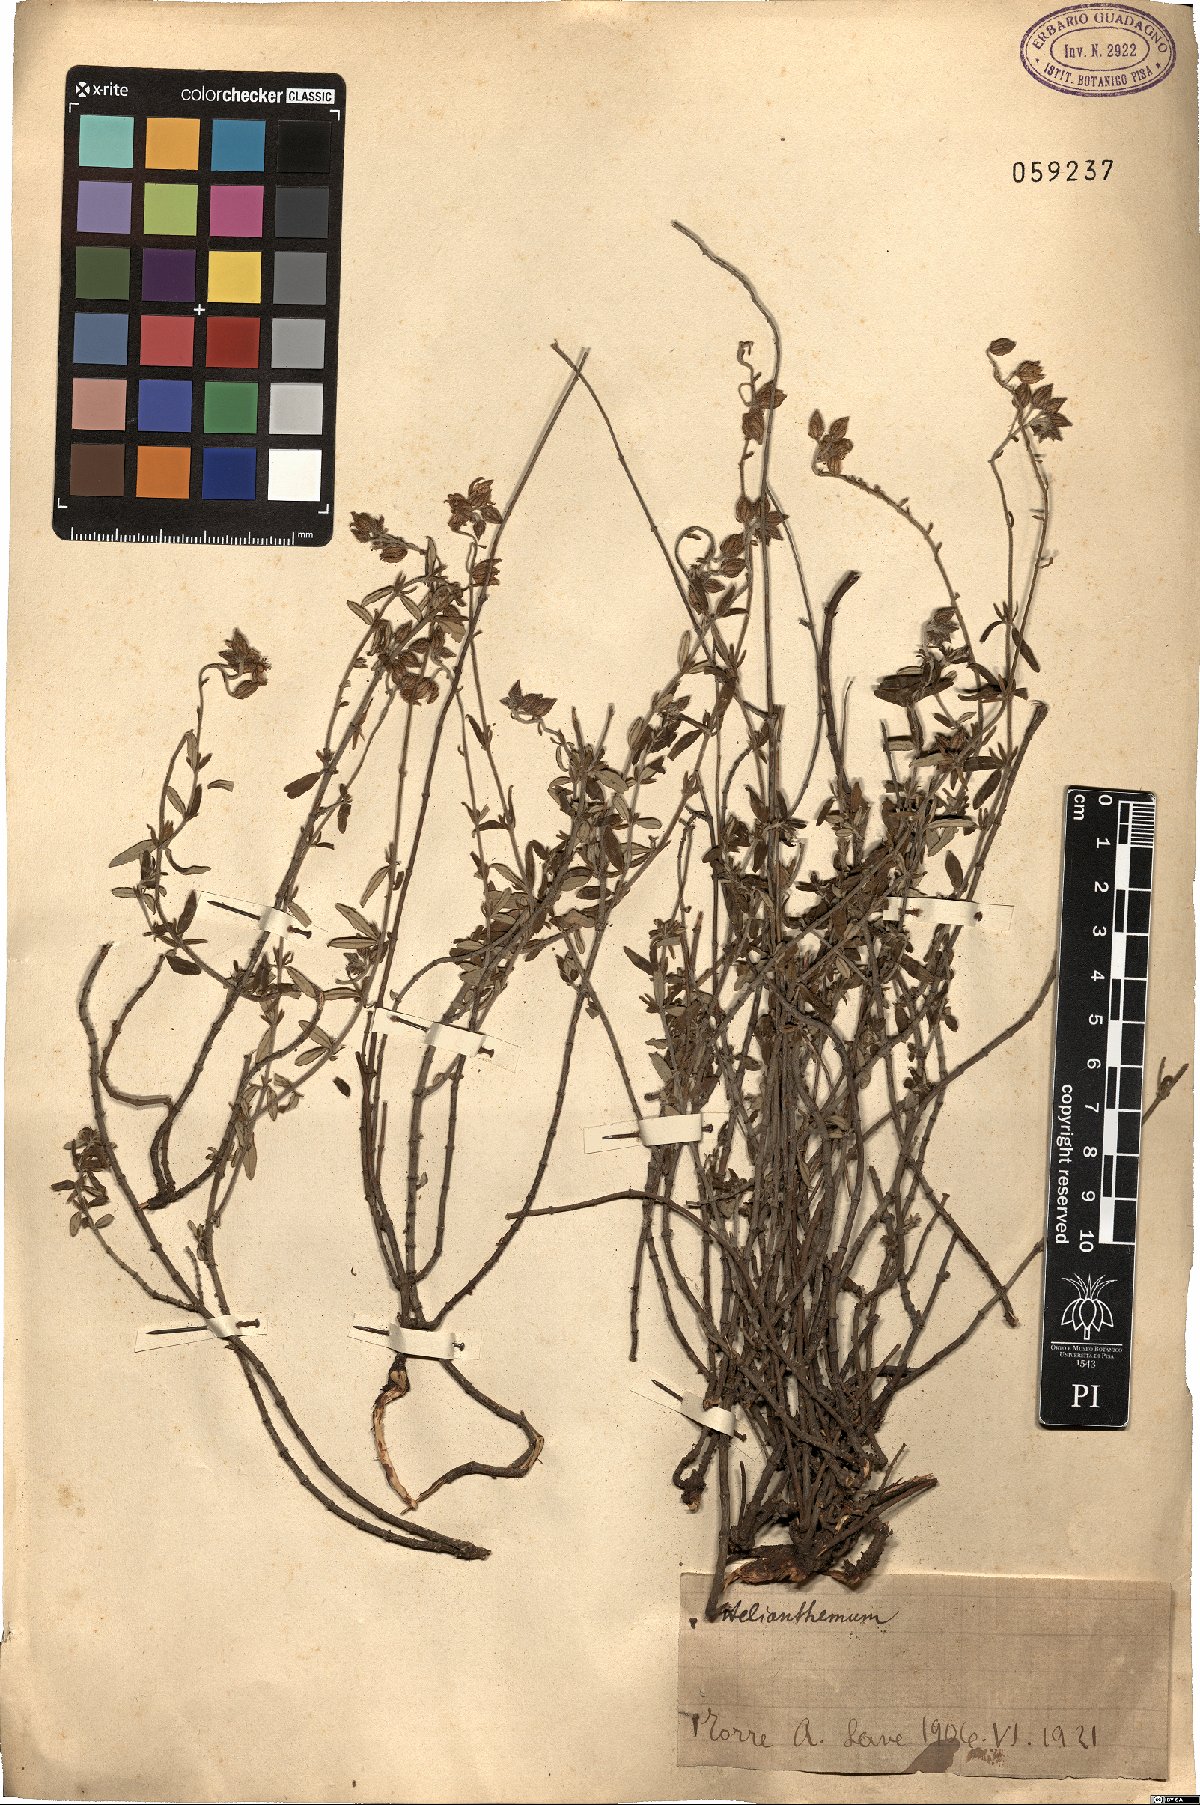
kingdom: Plantae
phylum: Tracheophyta
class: Magnoliopsida
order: Malvales
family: Cistaceae
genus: Helianthemum
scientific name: Helianthemum
